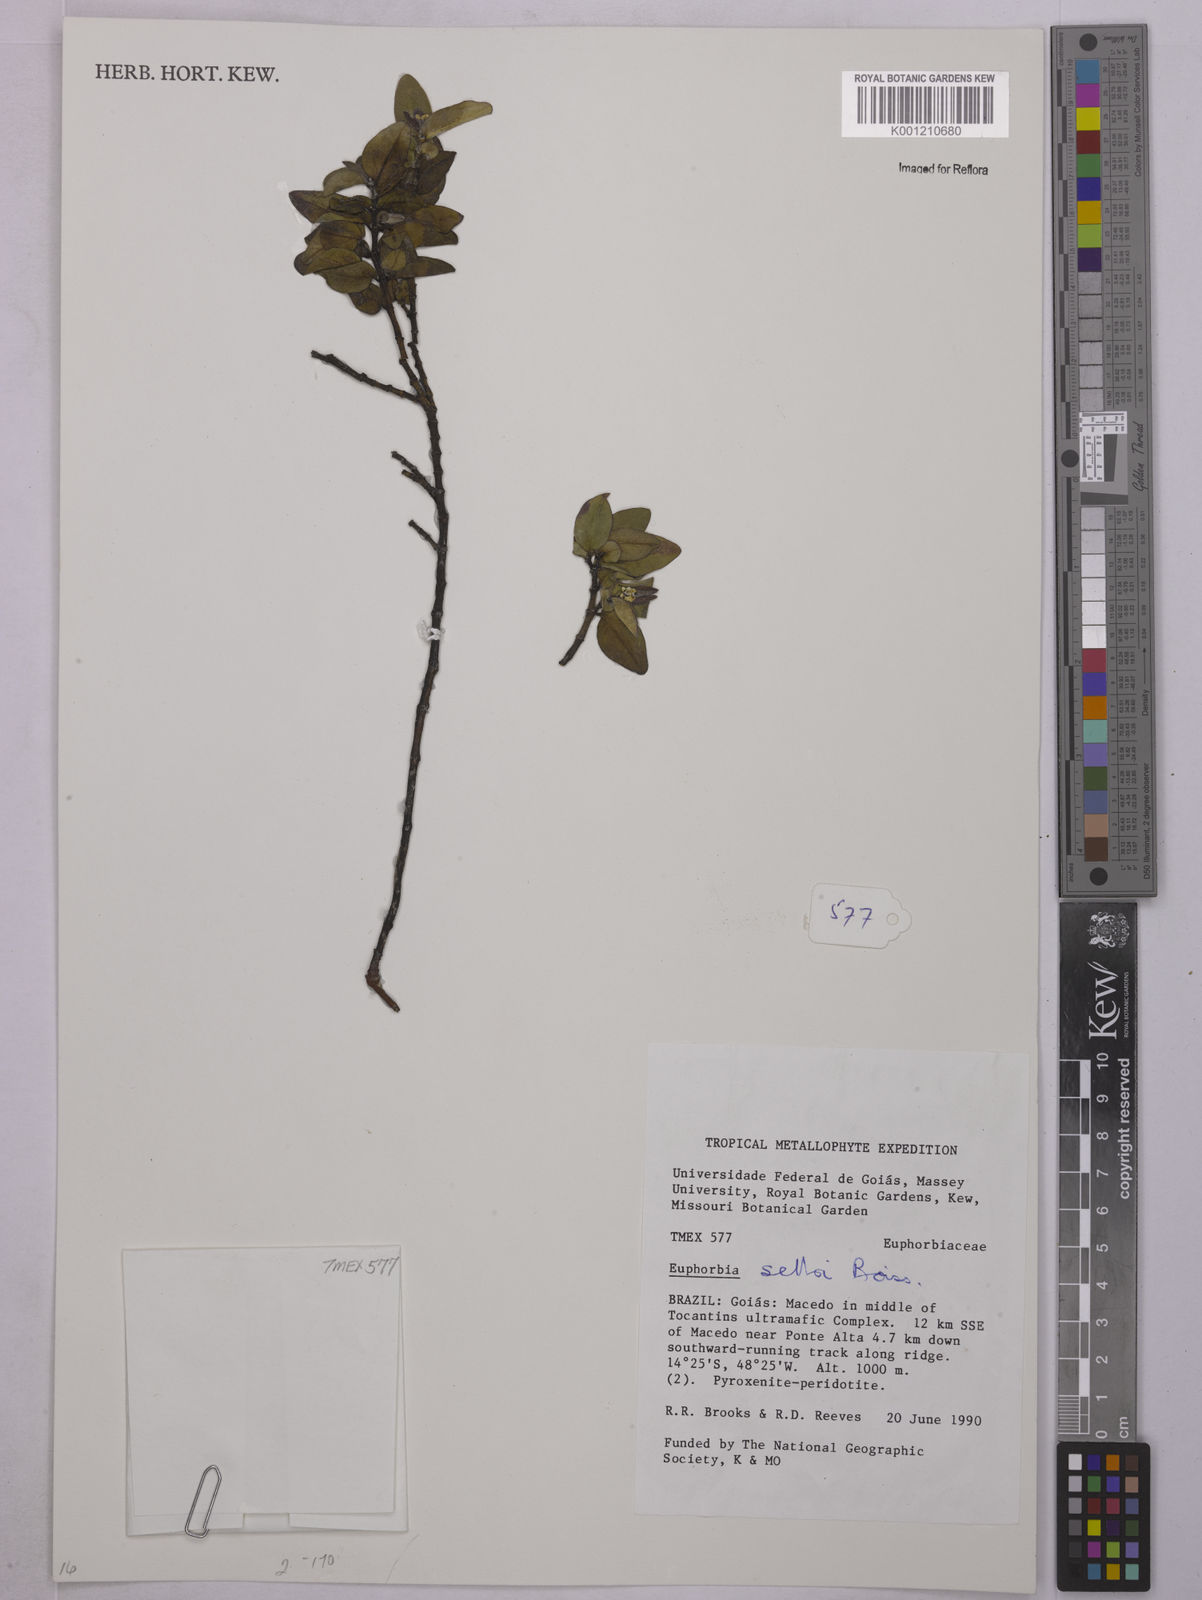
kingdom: Plantae
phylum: Tracheophyta
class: Magnoliopsida
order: Malpighiales
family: Euphorbiaceae
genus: Euphorbia
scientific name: Euphorbia selloi
